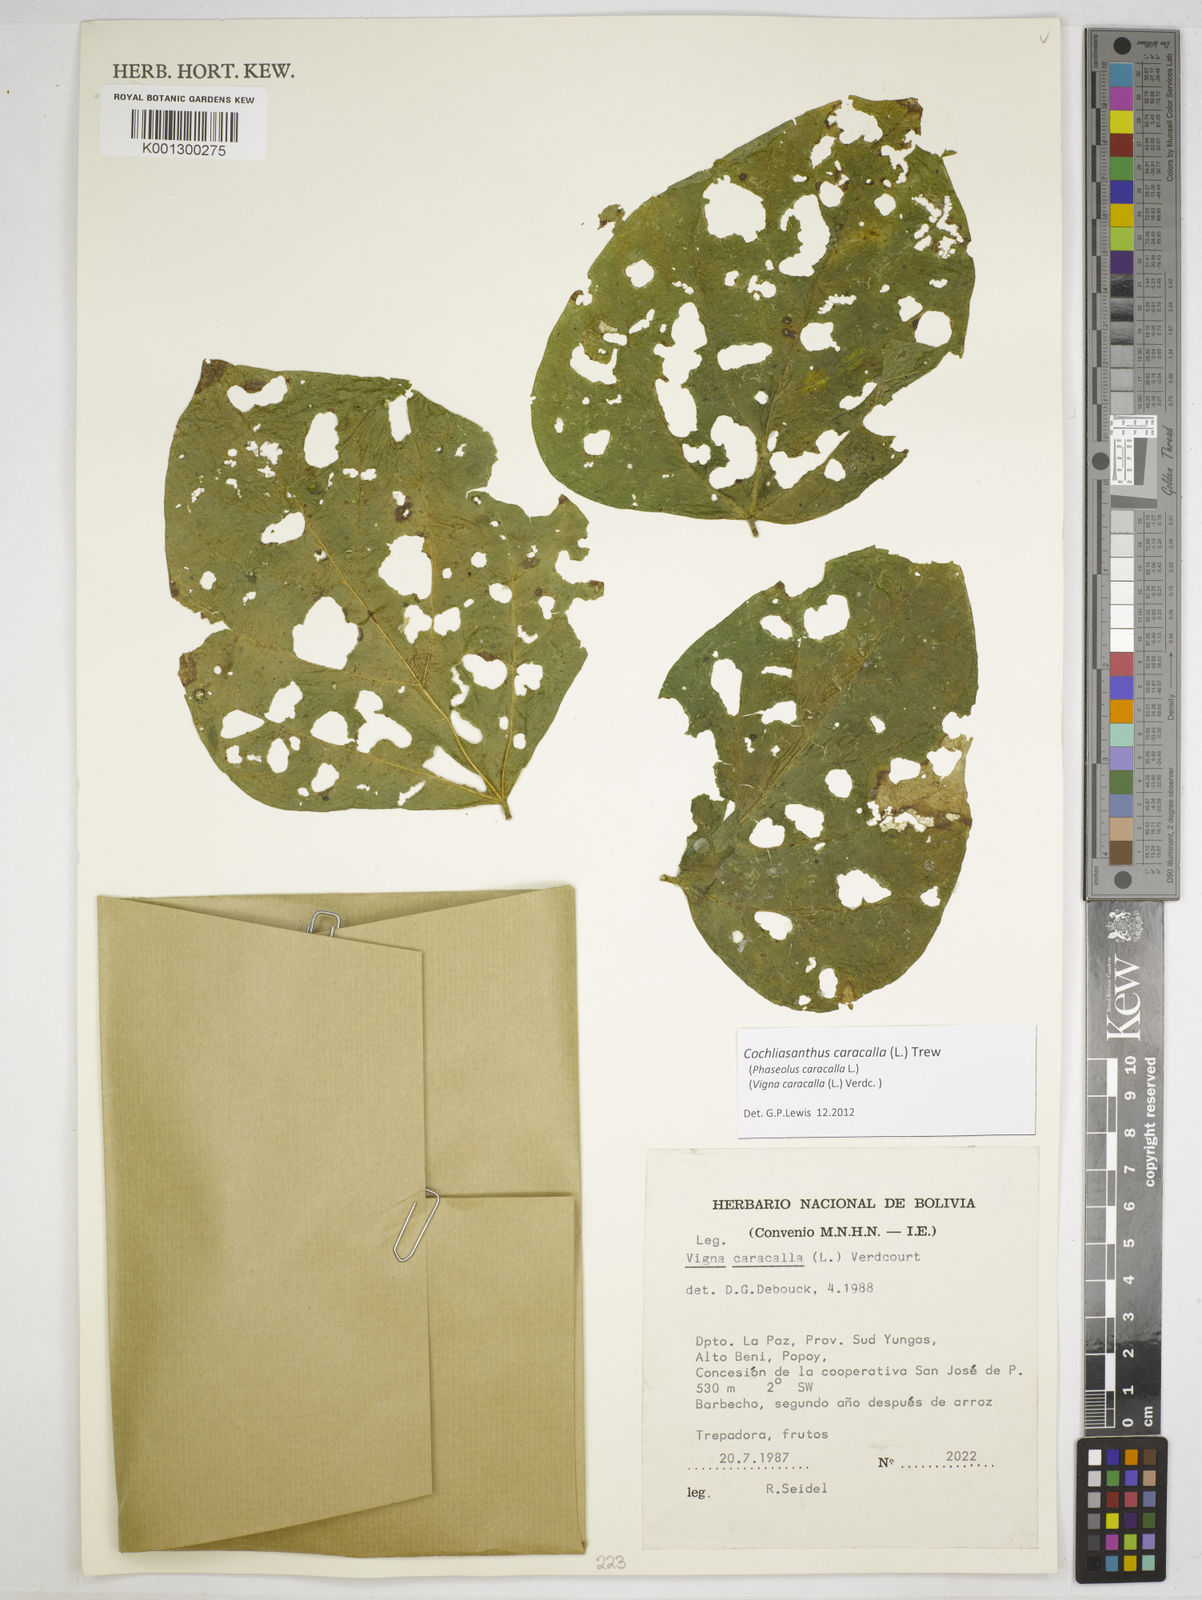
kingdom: Plantae
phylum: Tracheophyta
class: Magnoliopsida
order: Fabales
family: Fabaceae
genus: Cochliasanthus
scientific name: Cochliasanthus caracalla
